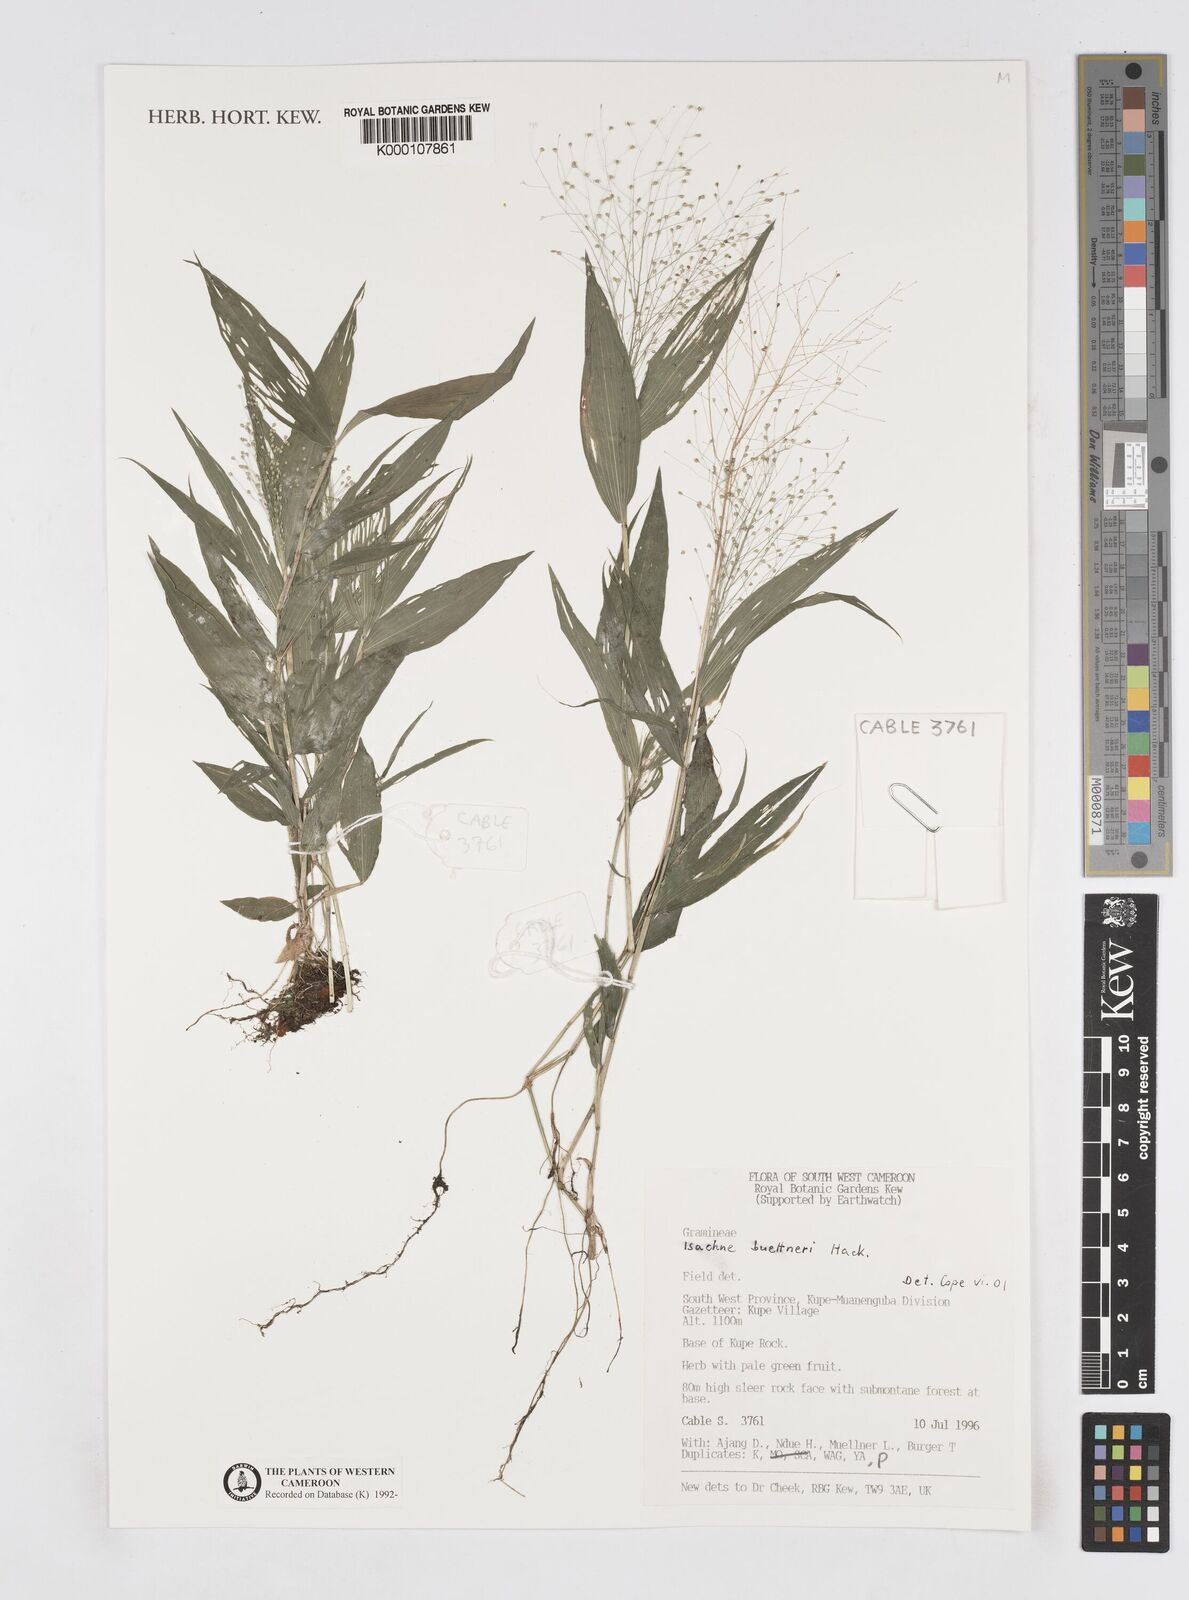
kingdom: Plantae
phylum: Tracheophyta
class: Liliopsida
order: Poales
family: Poaceae
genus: Isachne
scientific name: Isachne albens
